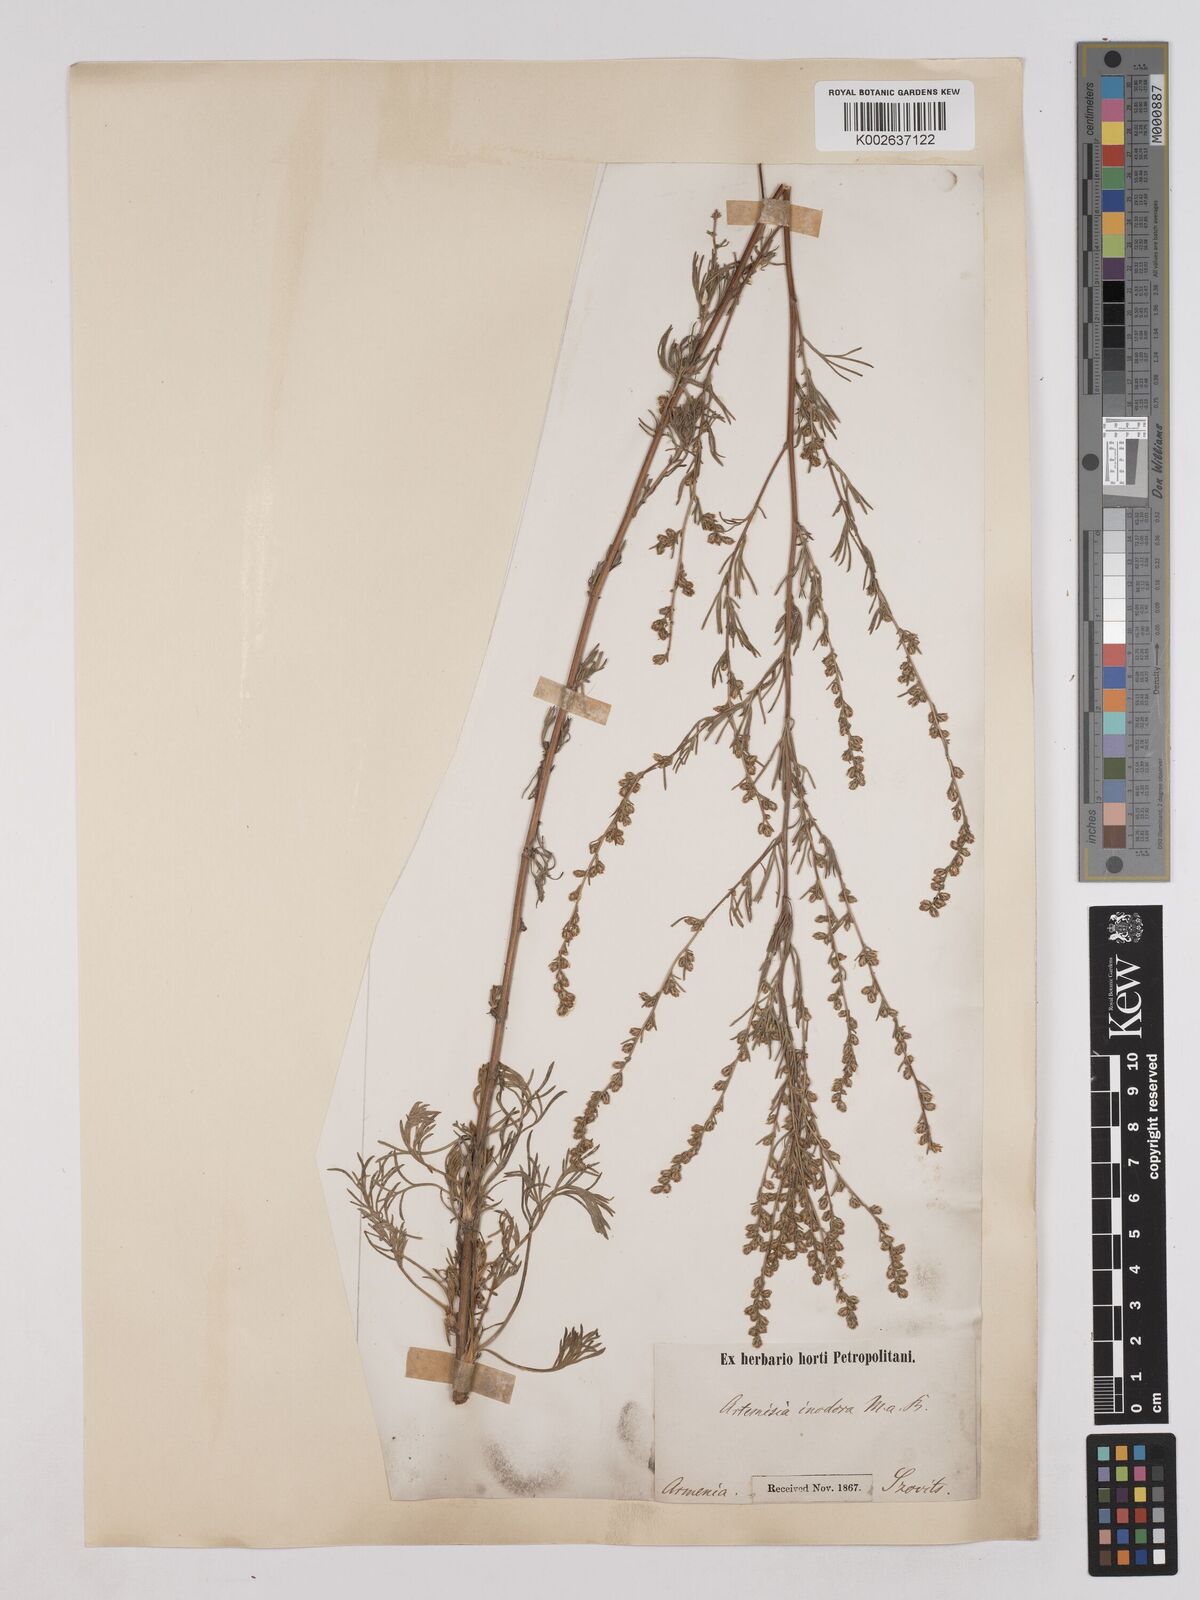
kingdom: Plantae
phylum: Tracheophyta
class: Magnoliopsida
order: Asterales
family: Asteraceae
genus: Artemisia
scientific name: Artemisia campestris
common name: Field wormwood
